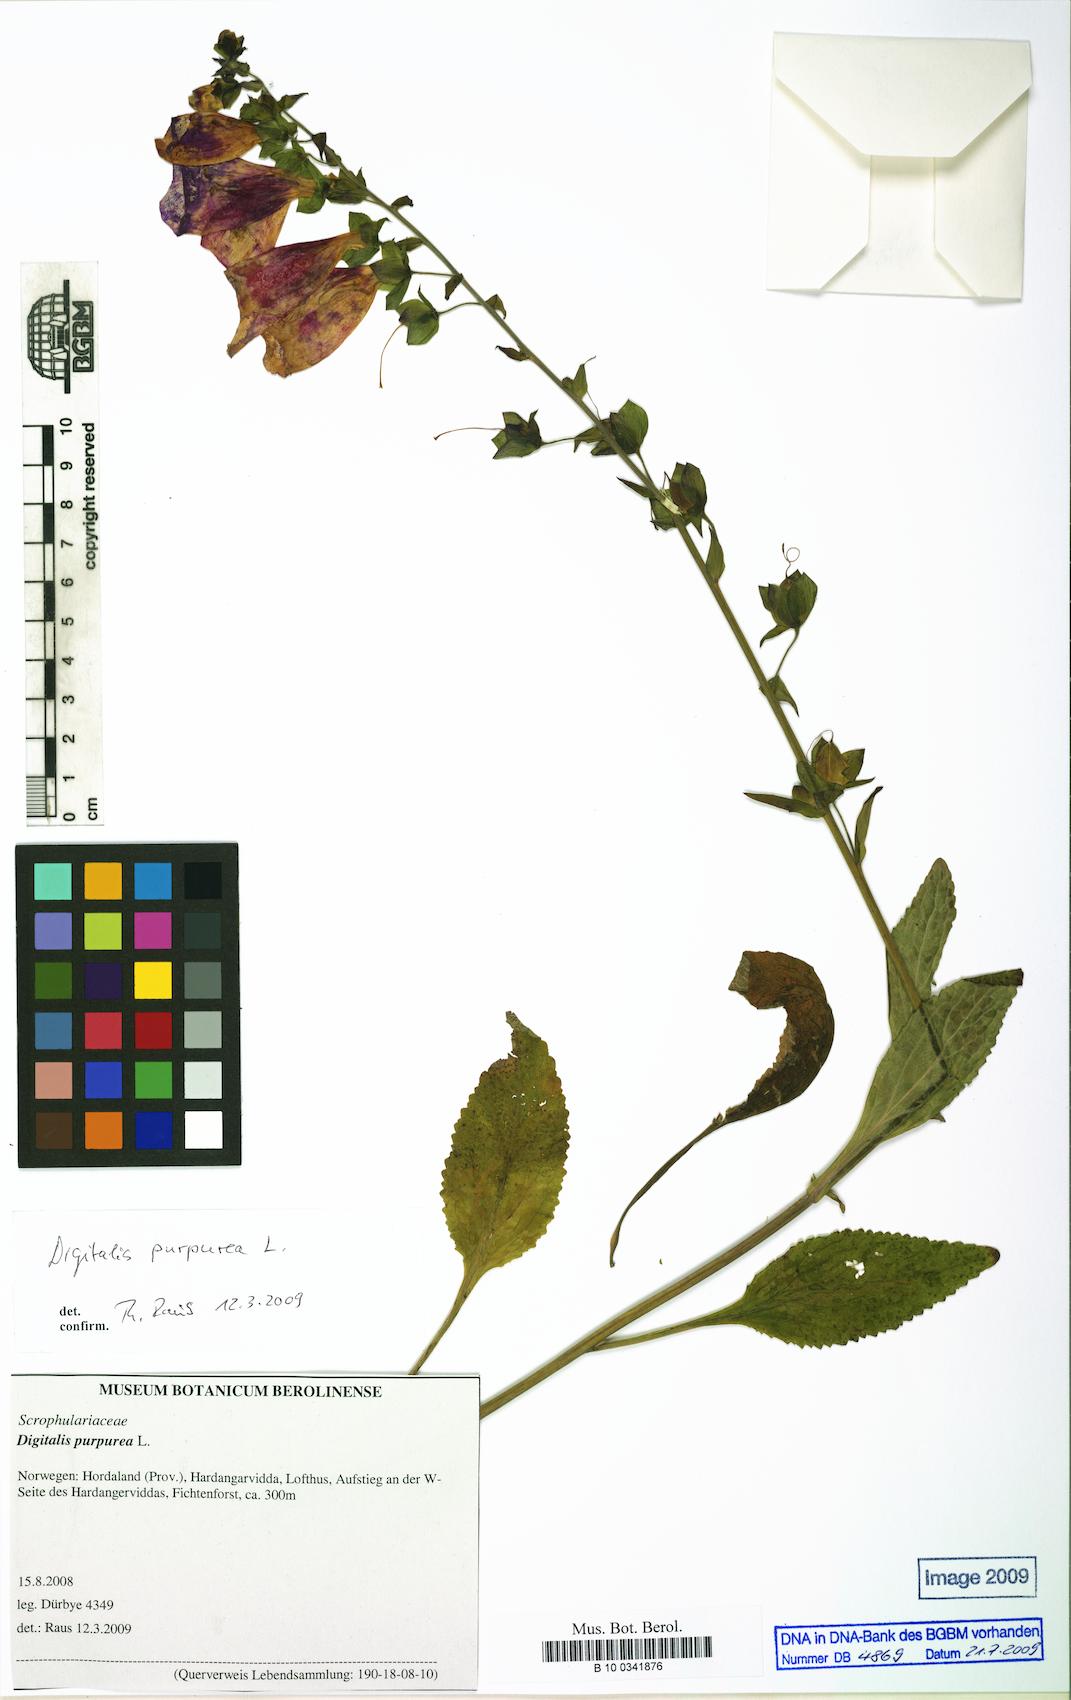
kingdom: Plantae
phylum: Tracheophyta
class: Magnoliopsida
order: Lamiales
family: Plantaginaceae
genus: Digitalis
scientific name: Digitalis purpurea
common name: Foxglove
